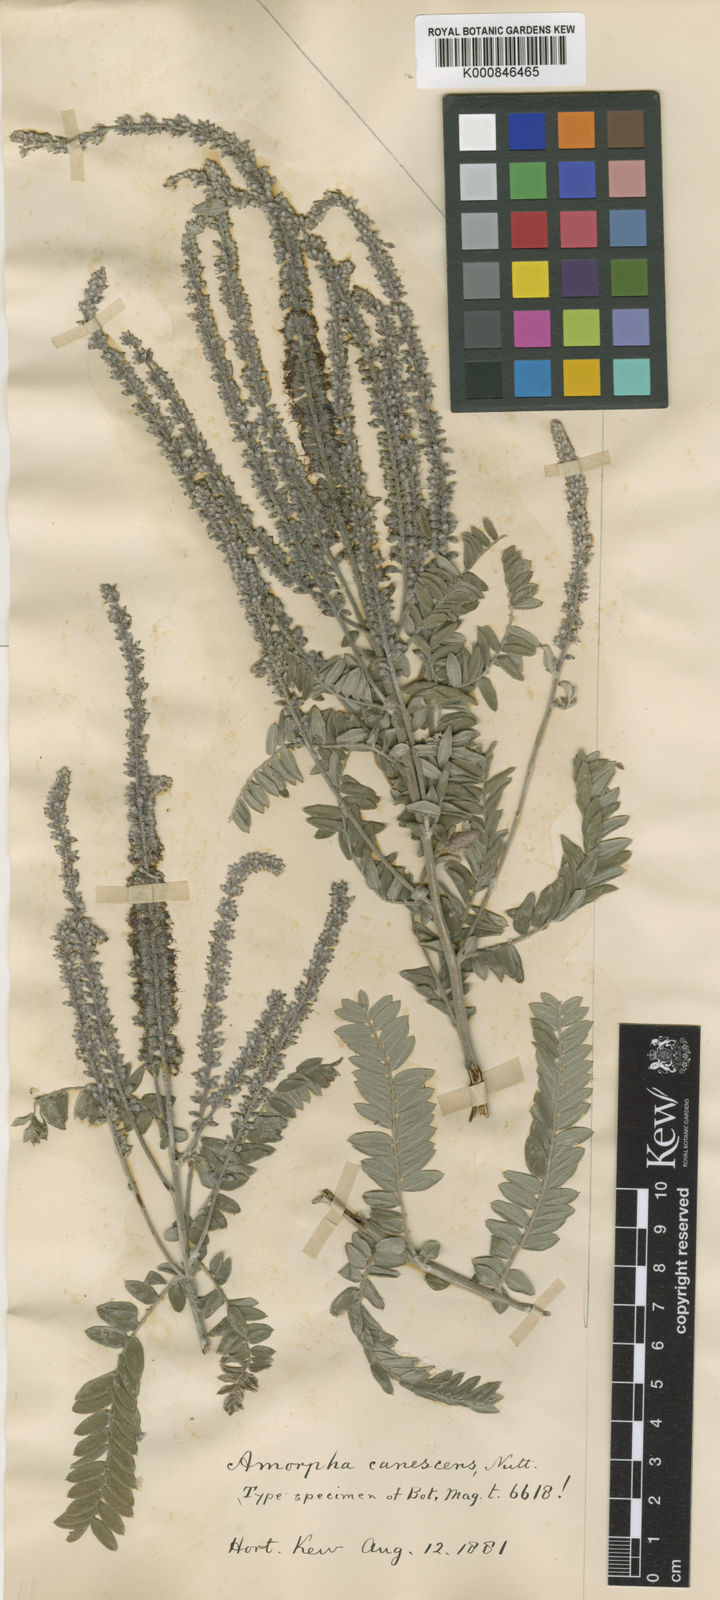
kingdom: Plantae
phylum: Tracheophyta
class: Magnoliopsida
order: Fabales
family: Fabaceae
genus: Amorpha
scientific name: Amorpha canescens
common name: Leadplant
